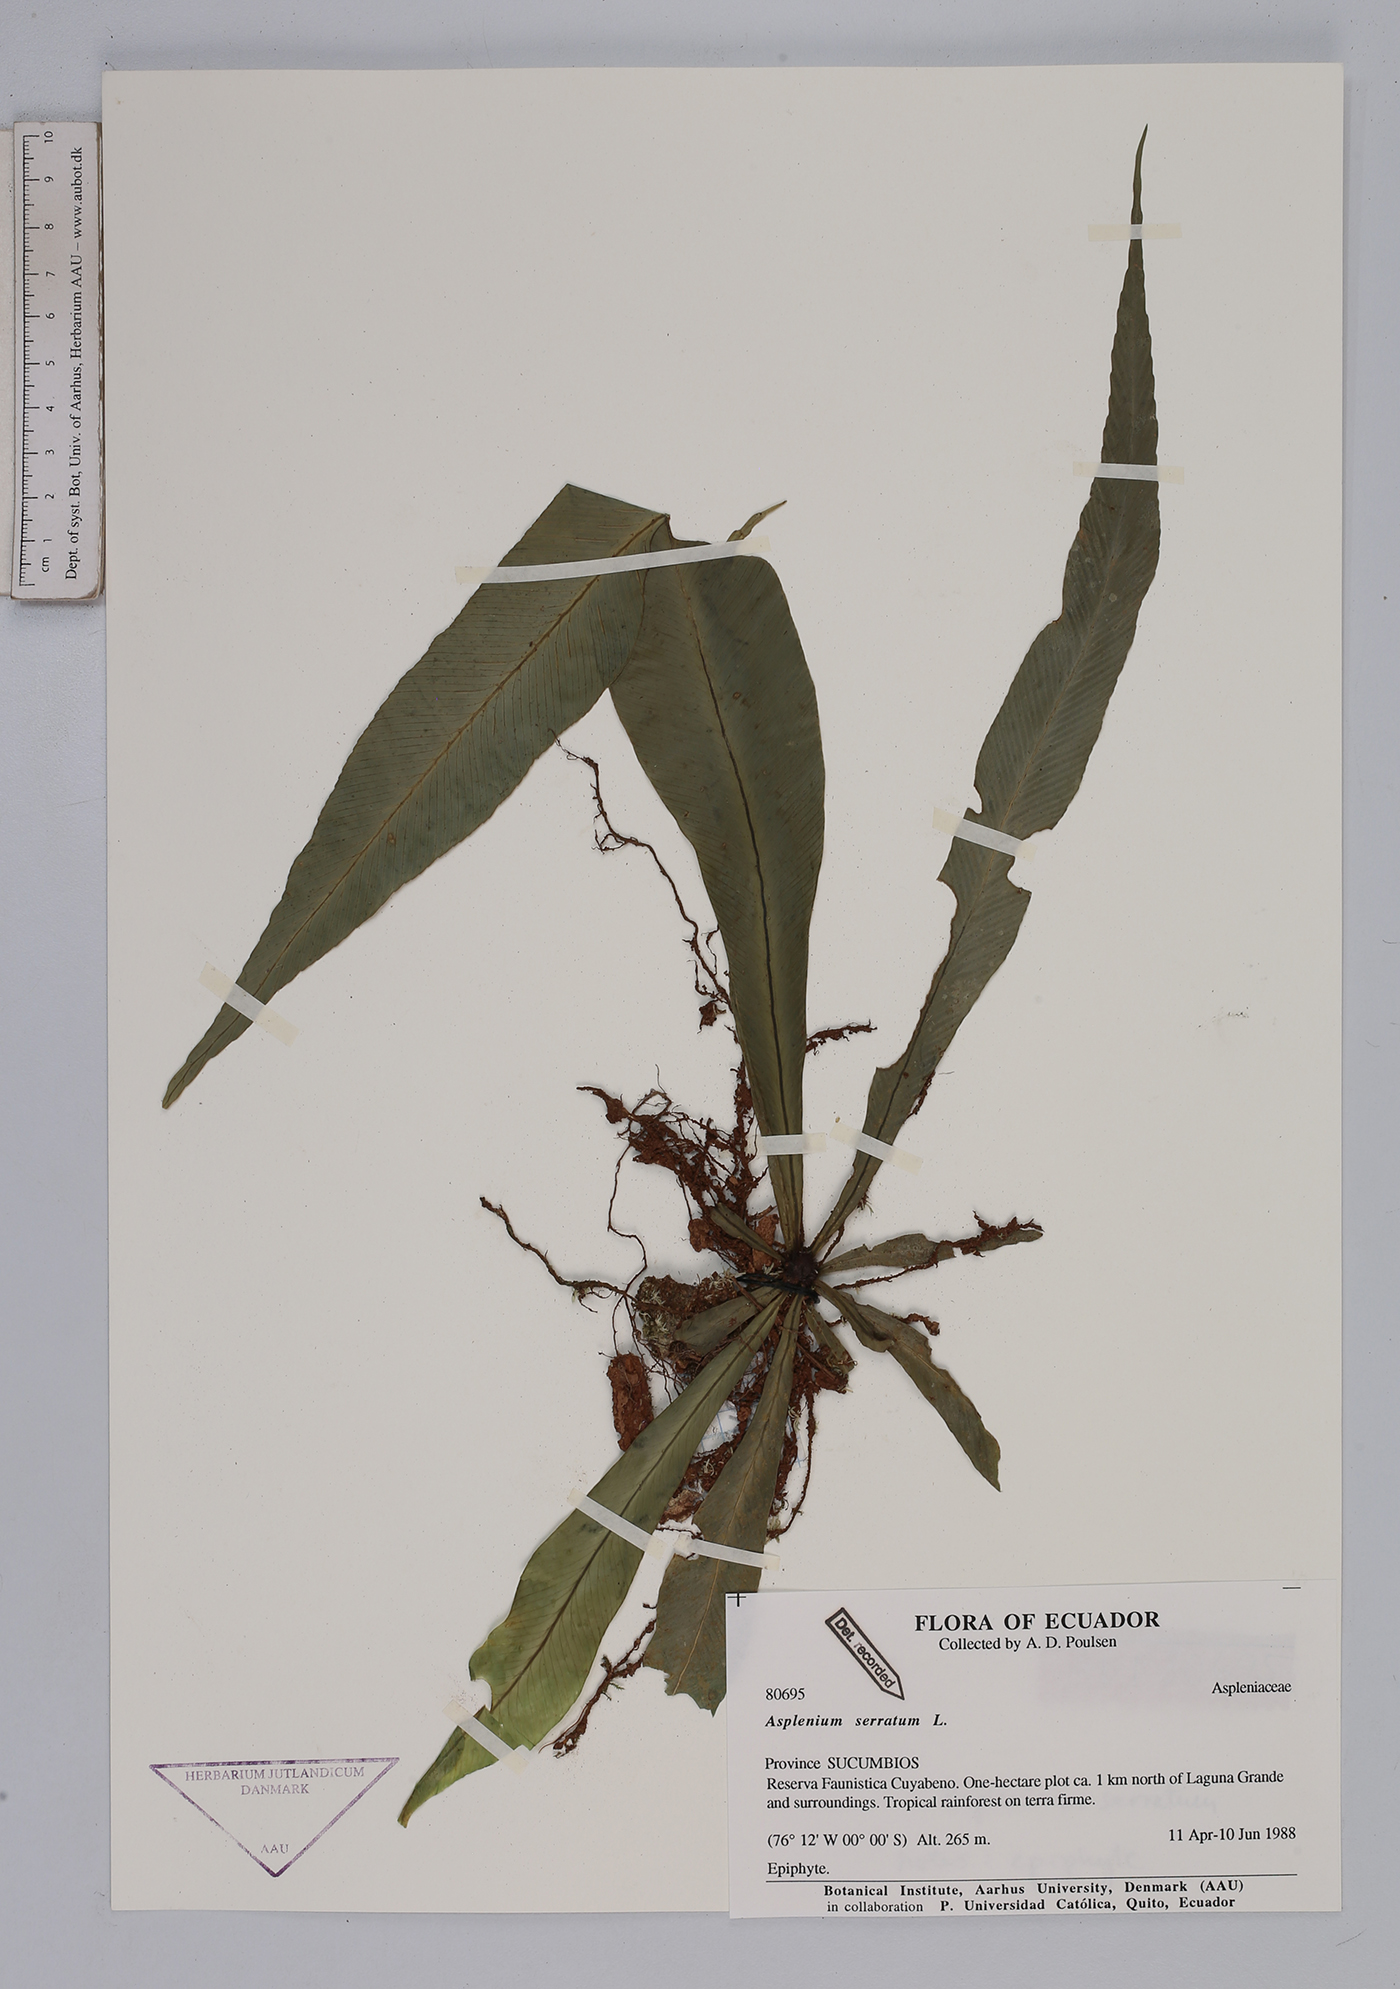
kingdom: Plantae
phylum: Tracheophyta
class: Polypodiopsida
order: Polypodiales
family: Aspleniaceae
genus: Asplenium
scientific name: Asplenium serratum
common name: Wild birdnest fern
